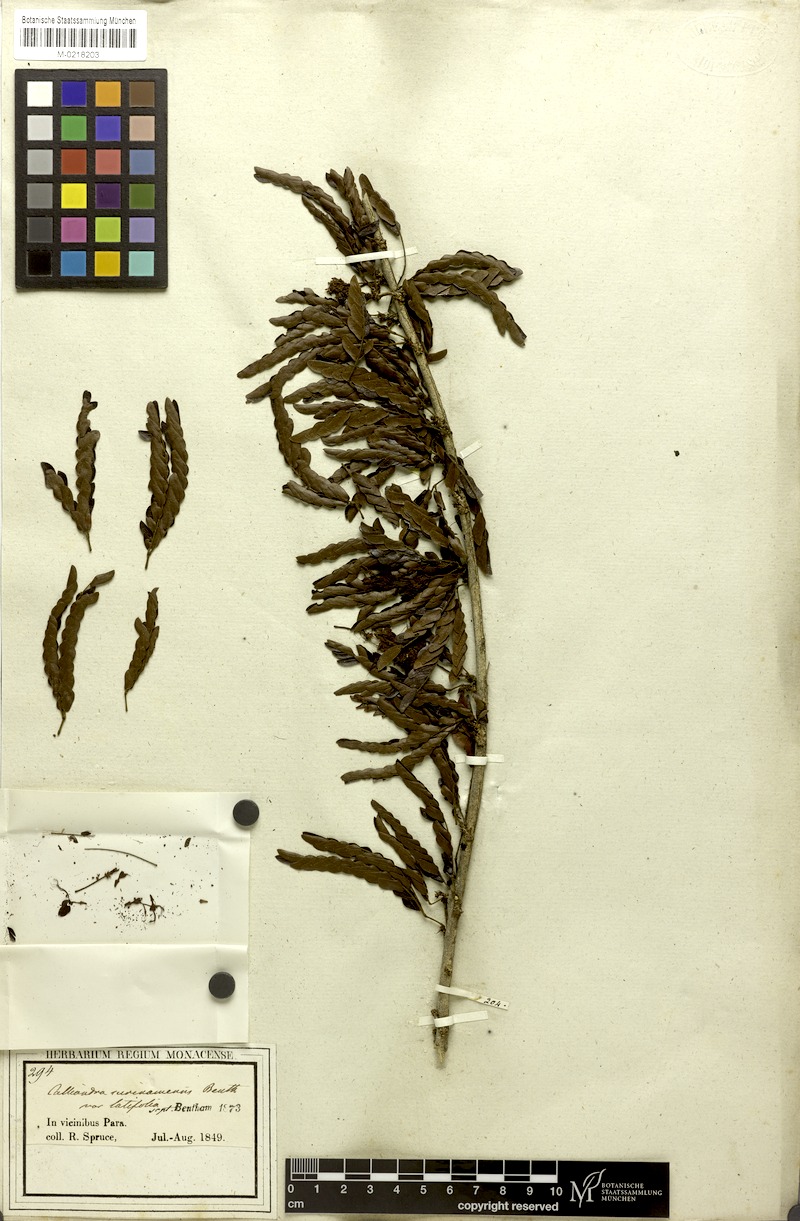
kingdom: Plantae
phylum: Tracheophyta
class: Magnoliopsida
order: Fabales
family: Fabaceae
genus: Calliandra
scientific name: Calliandra surinamensis
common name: Pink powder puff
